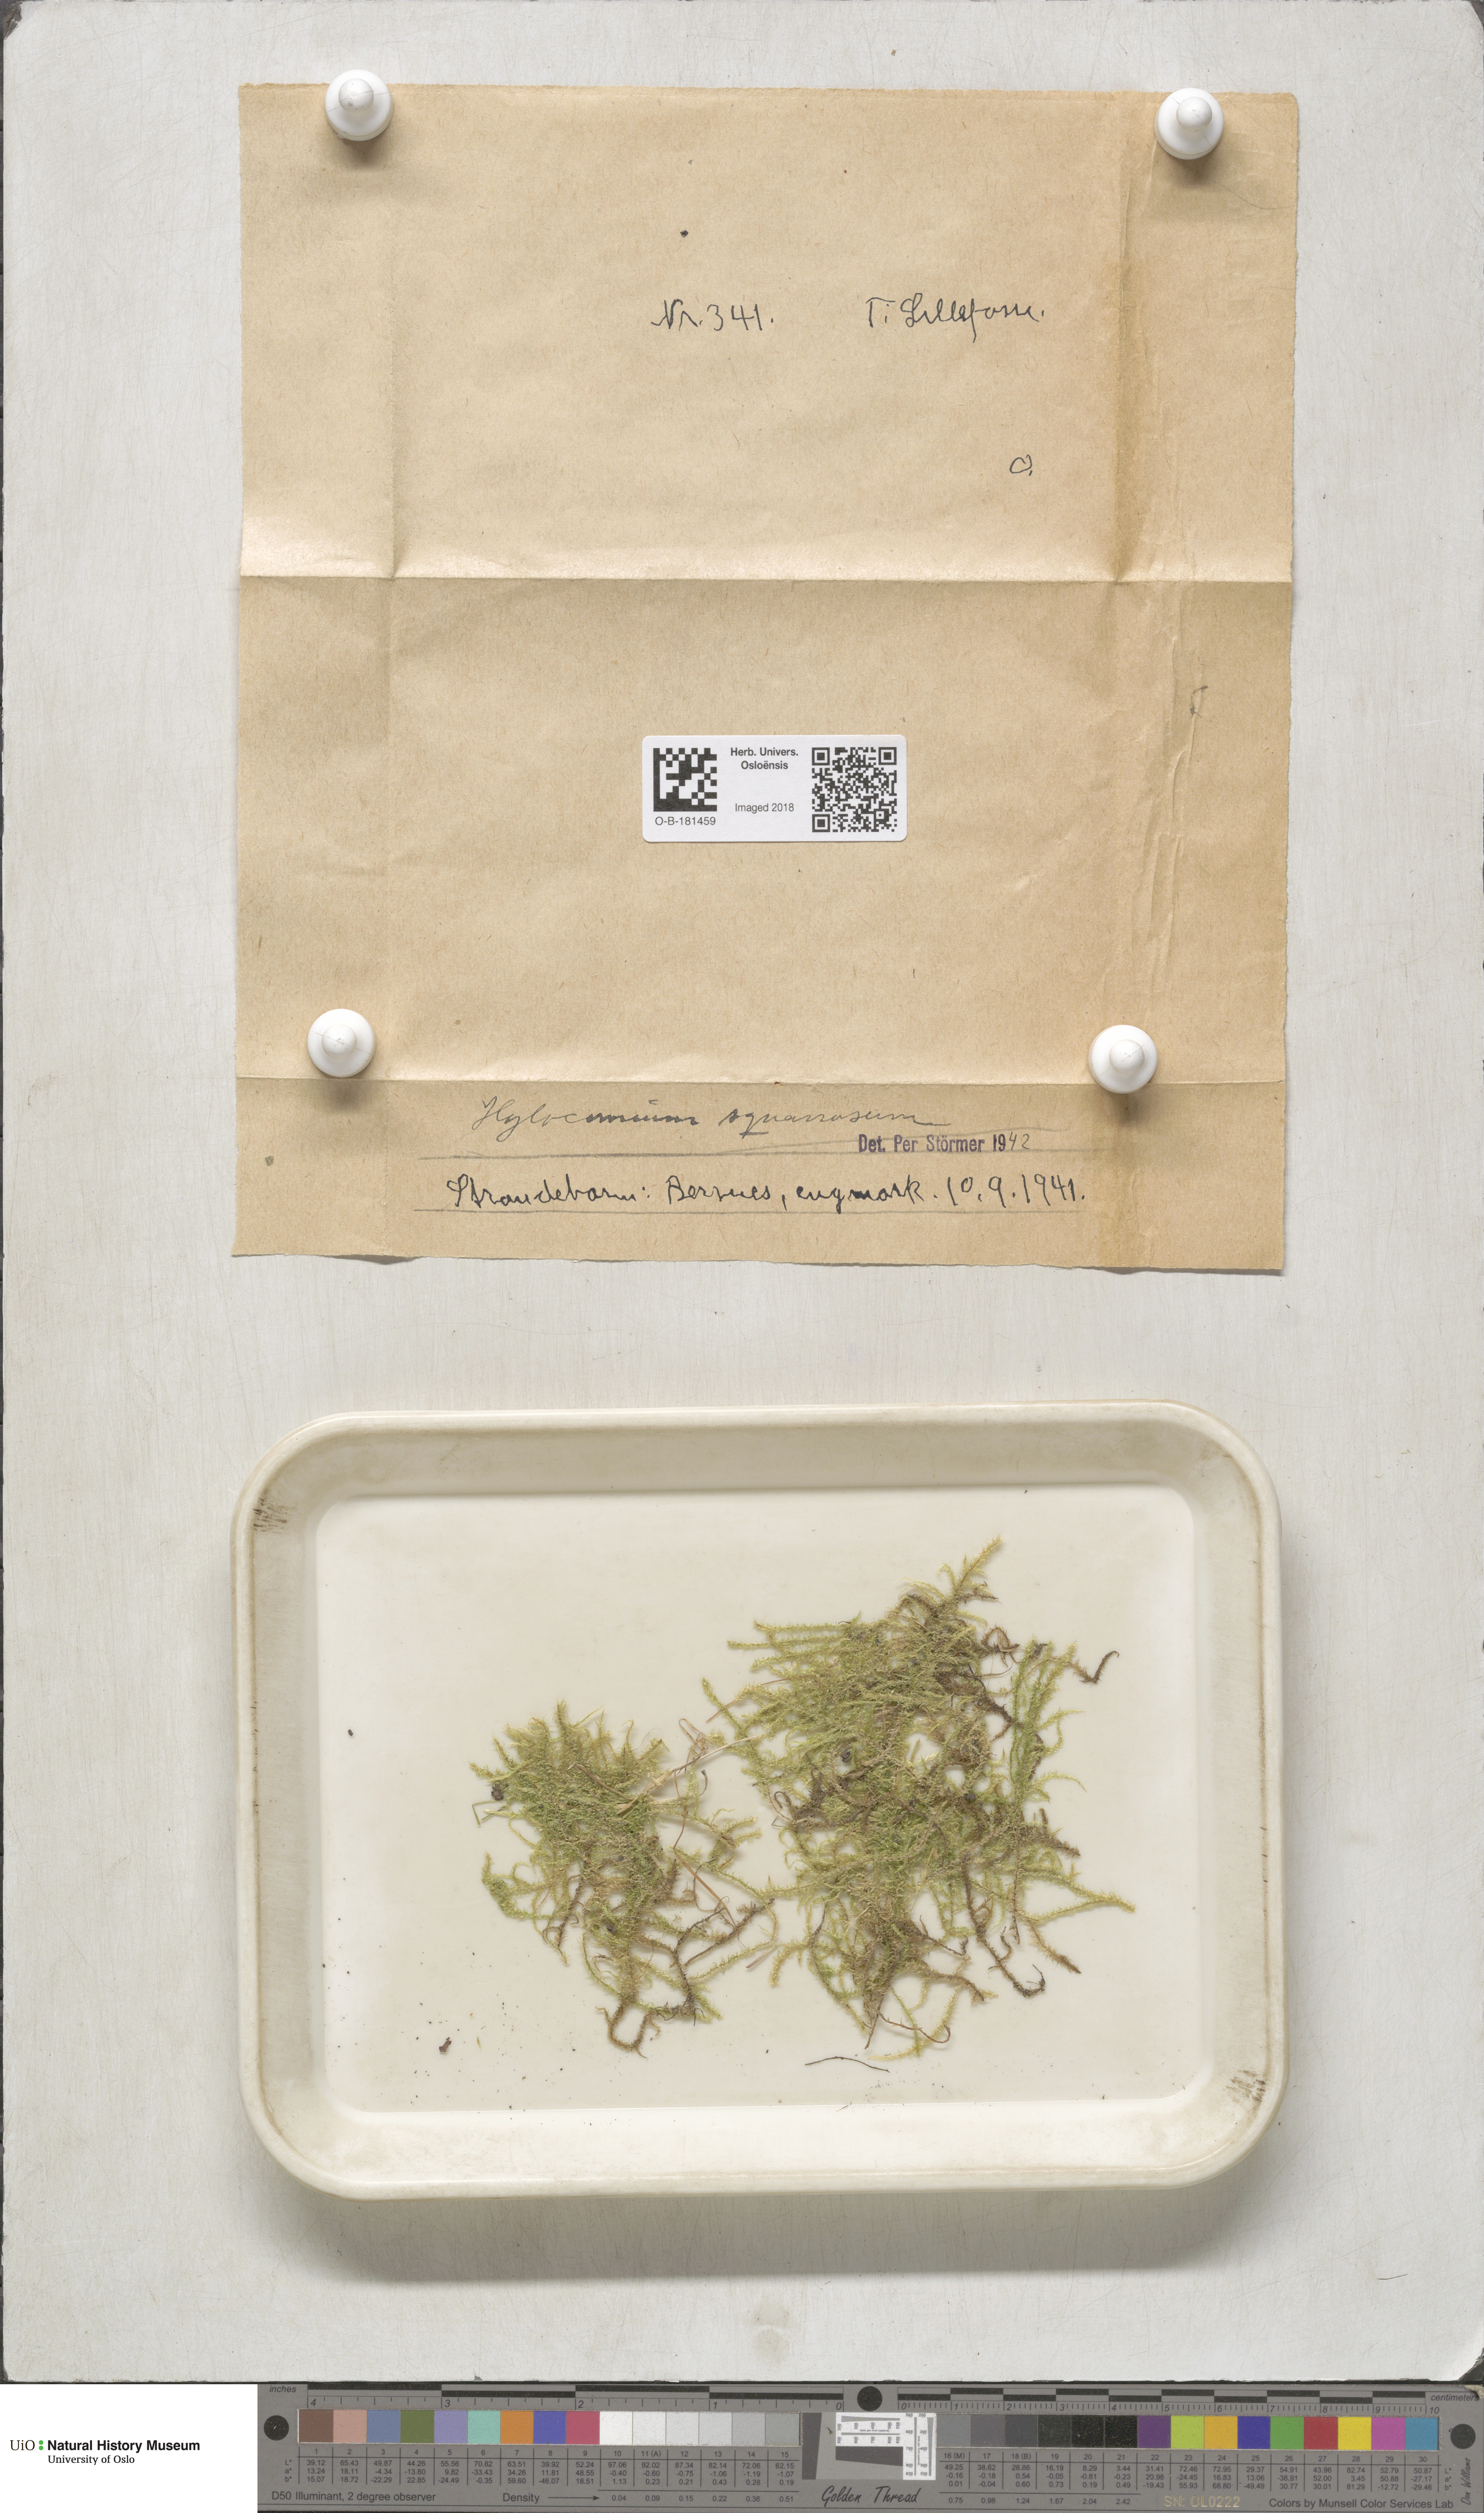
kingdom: Plantae
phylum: Bryophyta
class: Bryopsida
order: Hypnales
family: Hylocomiaceae
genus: Rhytidiadelphus
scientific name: Rhytidiadelphus squarrosus
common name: Springy turf-moss
